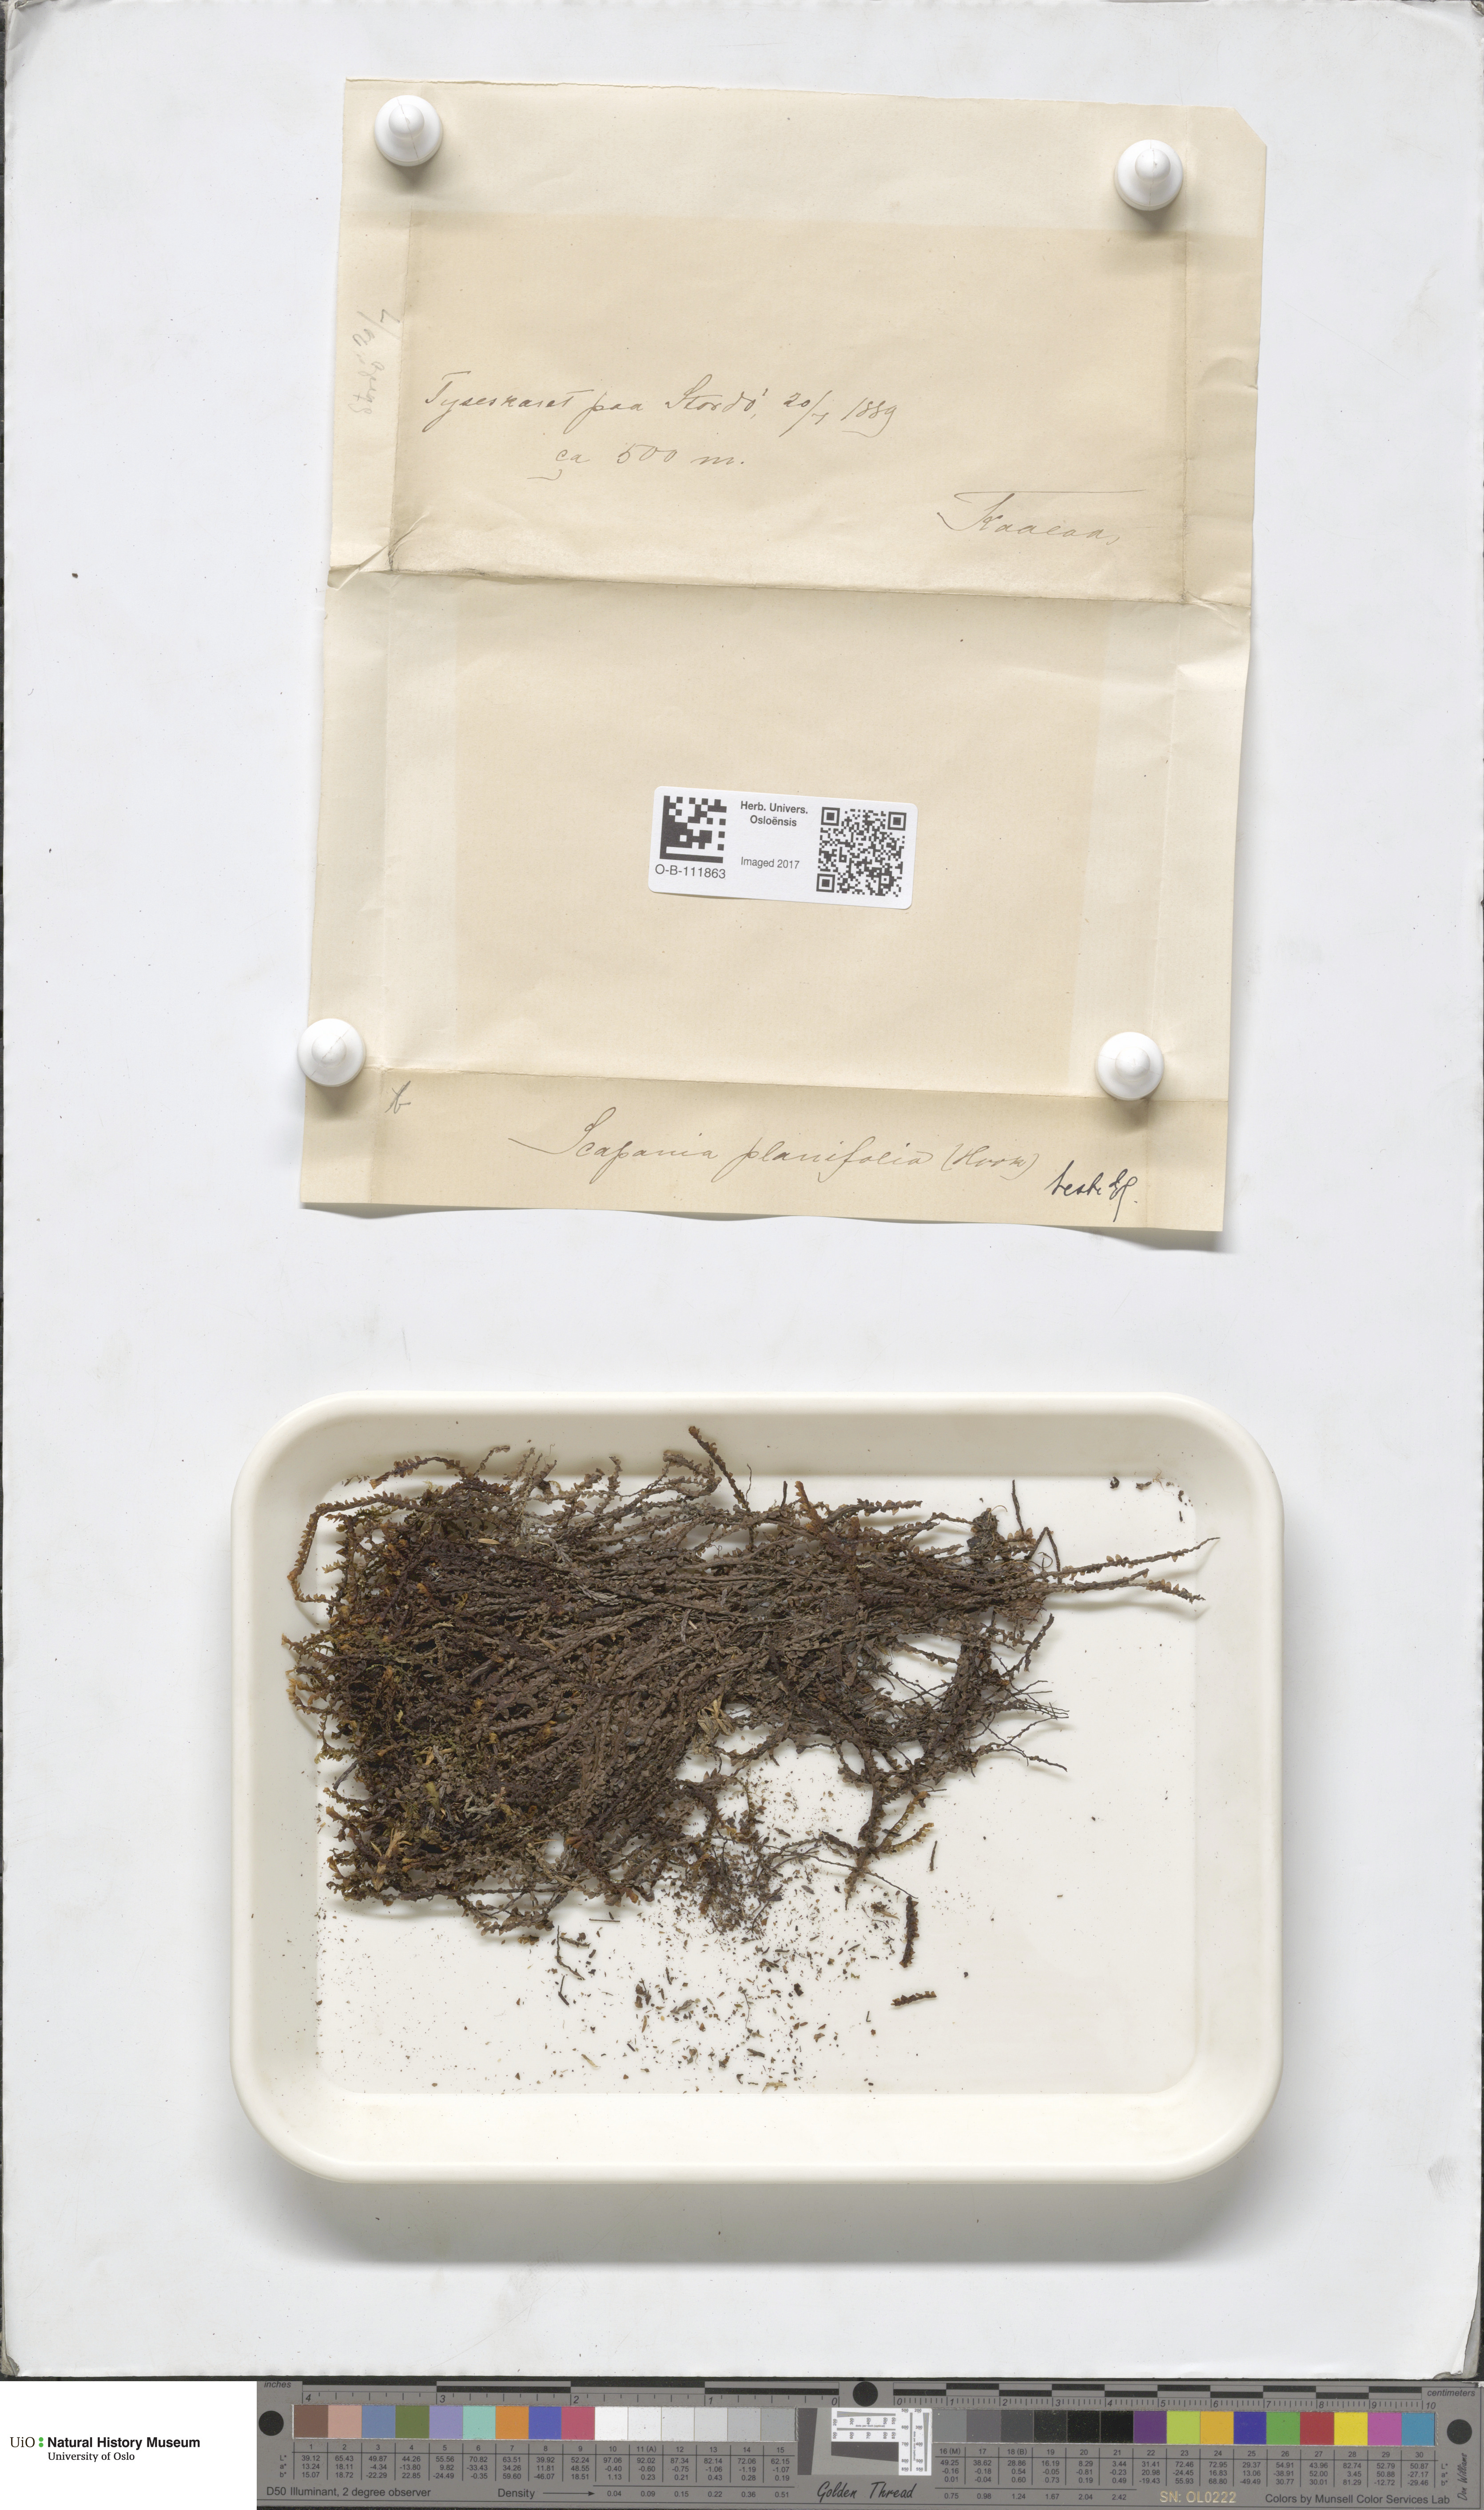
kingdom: Plantae
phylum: Marchantiophyta
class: Jungermanniopsida
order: Jungermanniales
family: Scapaniaceae
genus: Scapania
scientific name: Scapania ornithopodioides
